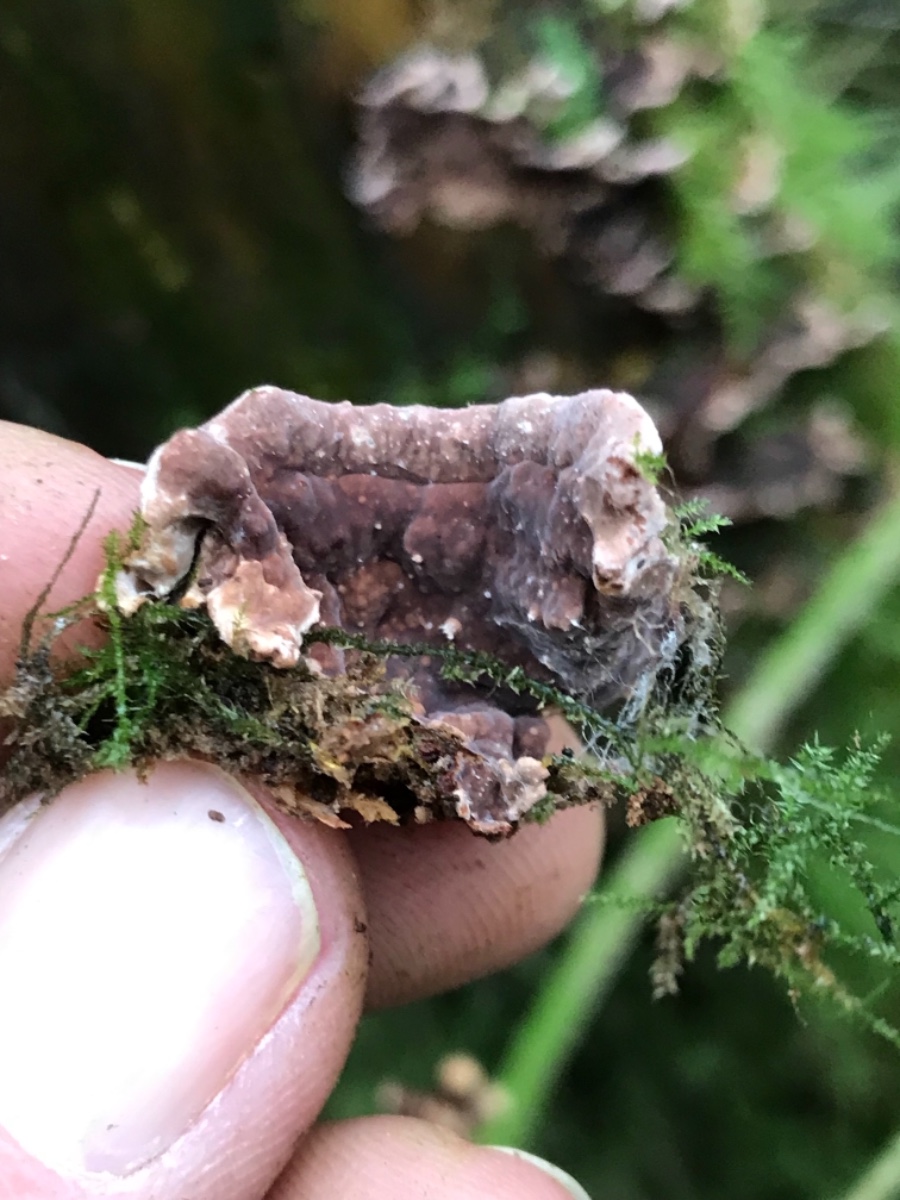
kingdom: Fungi
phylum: Basidiomycota
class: Agaricomycetes
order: Russulales
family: Echinodontiaceae
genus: Amylostereum
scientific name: Amylostereum
